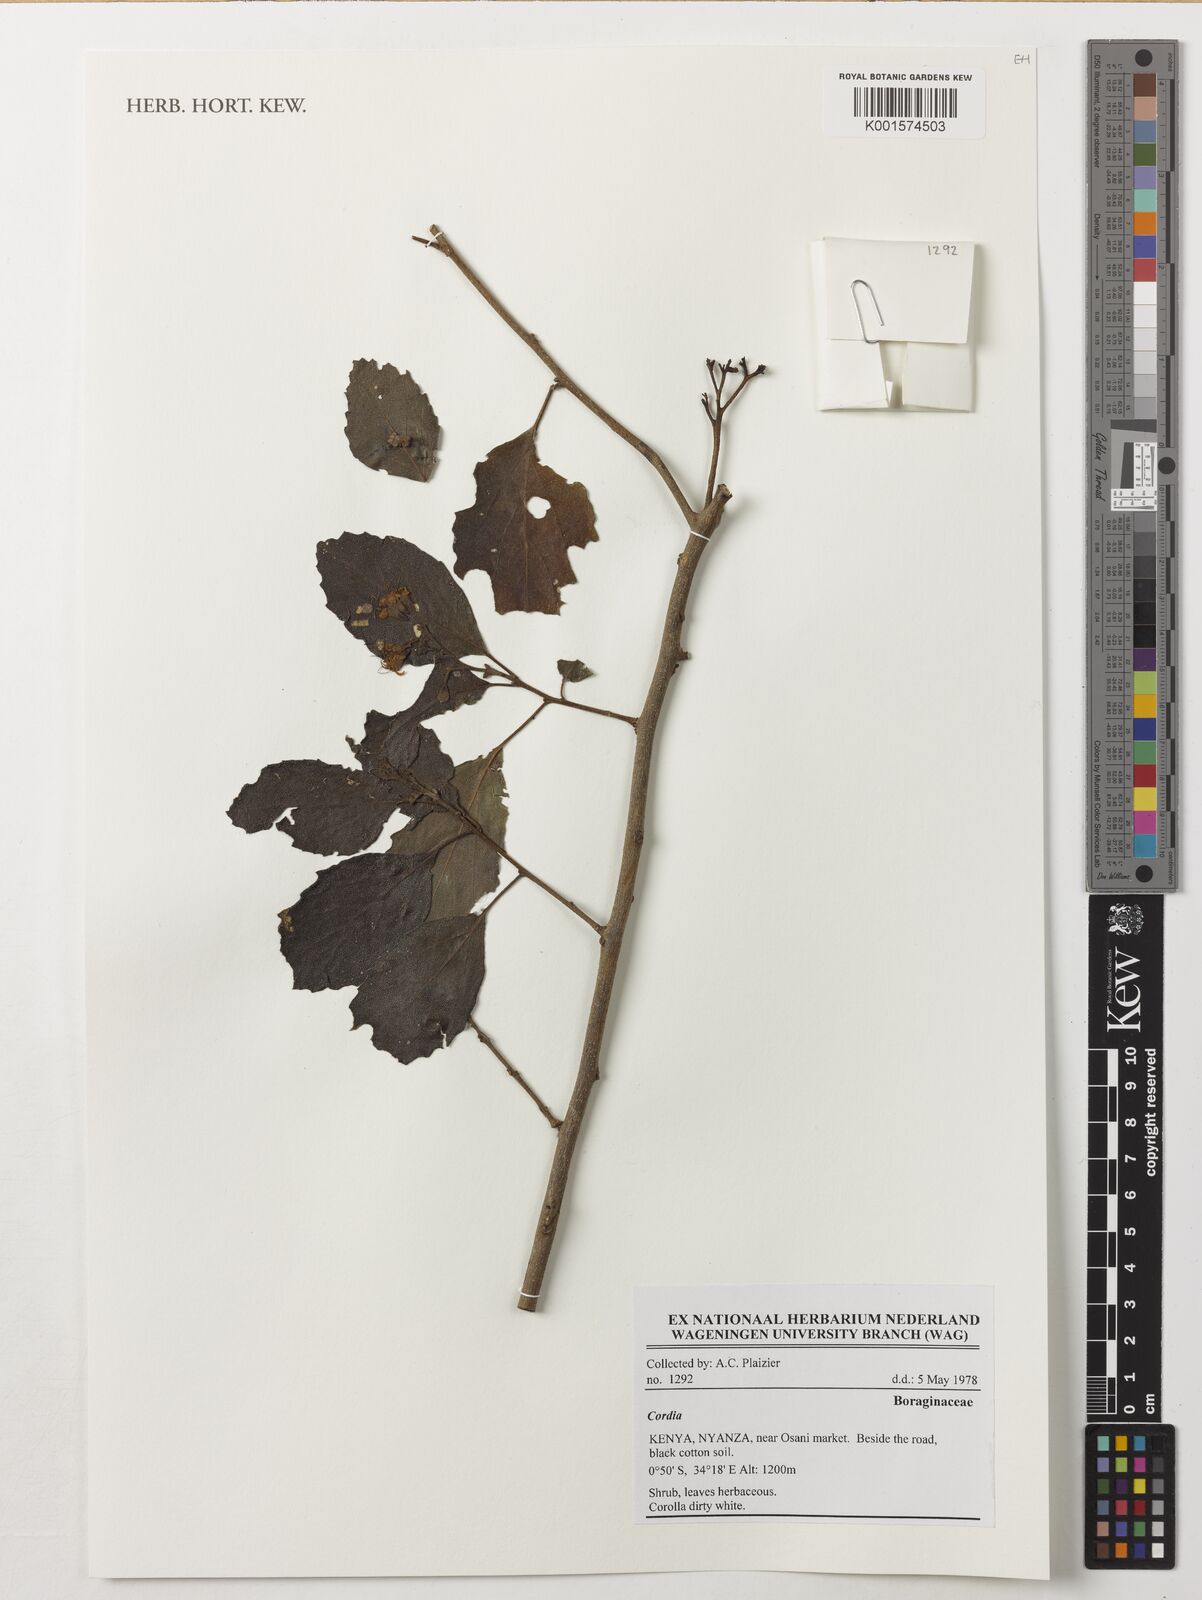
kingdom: Plantae
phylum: Tracheophyta
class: Magnoliopsida
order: Boraginales
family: Cordiaceae
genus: Cordia
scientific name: Cordia
